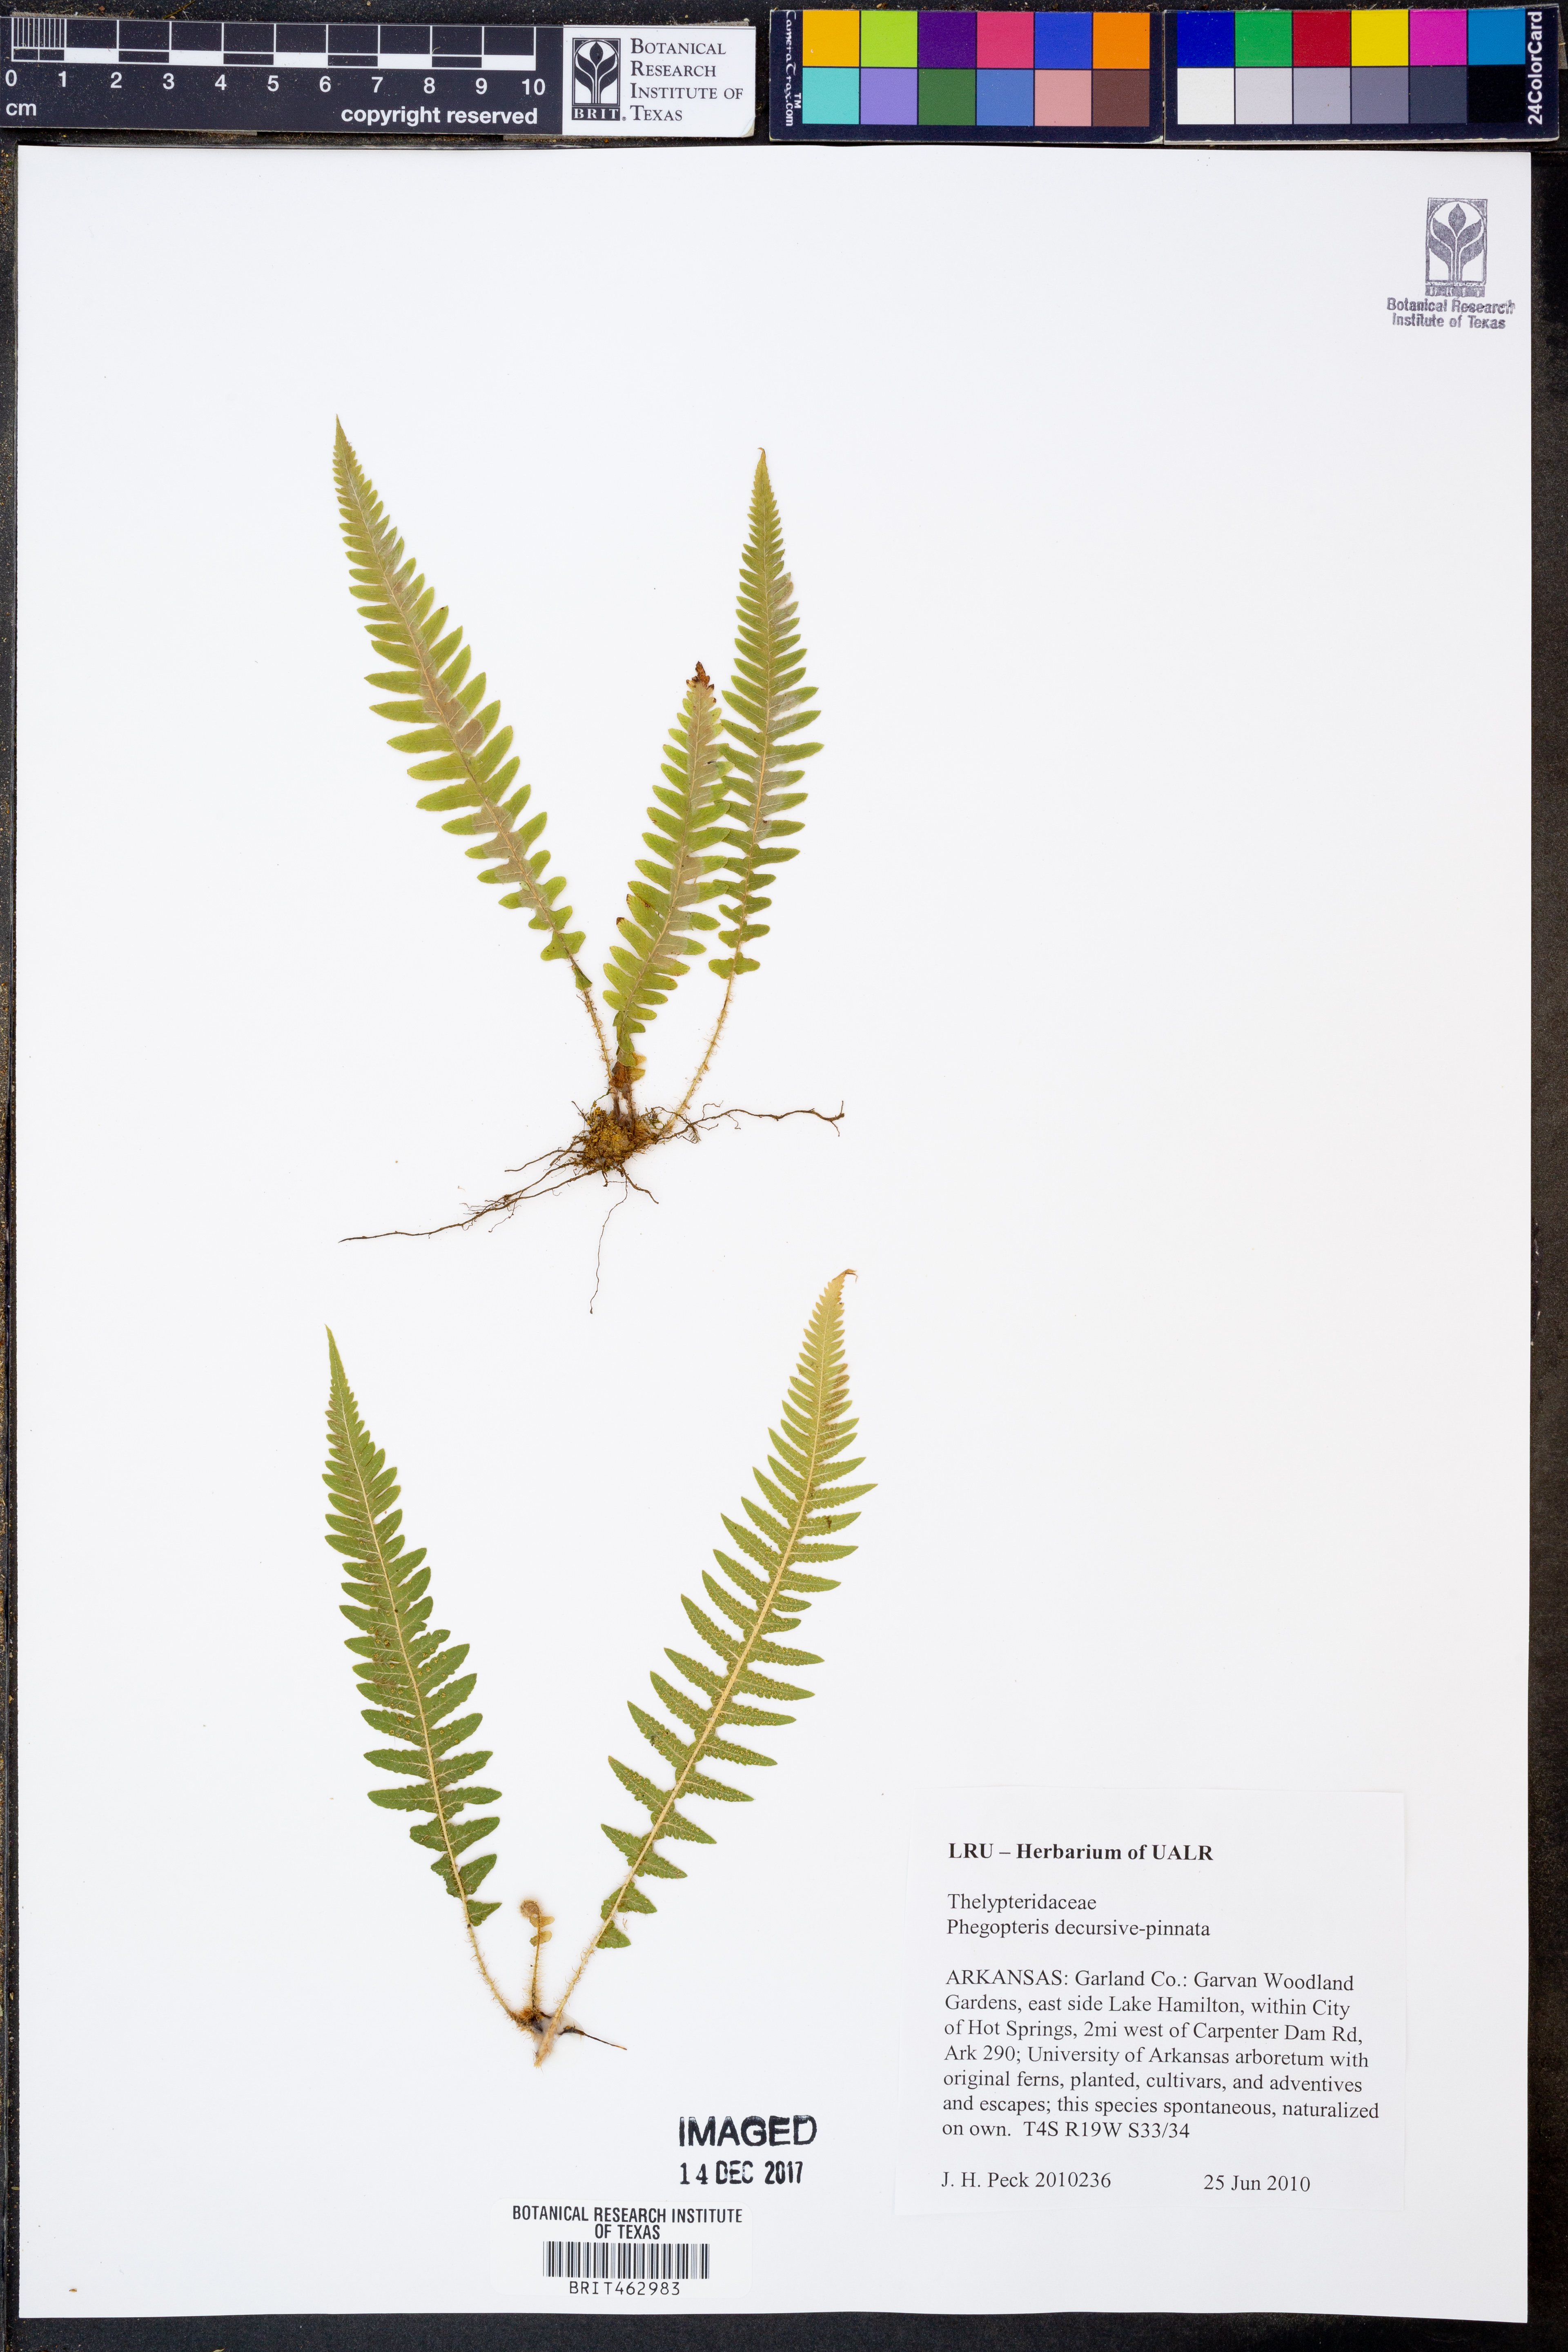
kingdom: Plantae
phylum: Tracheophyta
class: Polypodiopsida
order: Polypodiales
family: Thelypteridaceae
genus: Phegopteris
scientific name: Phegopteris decursive-pinnata
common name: Japanese beech fern
